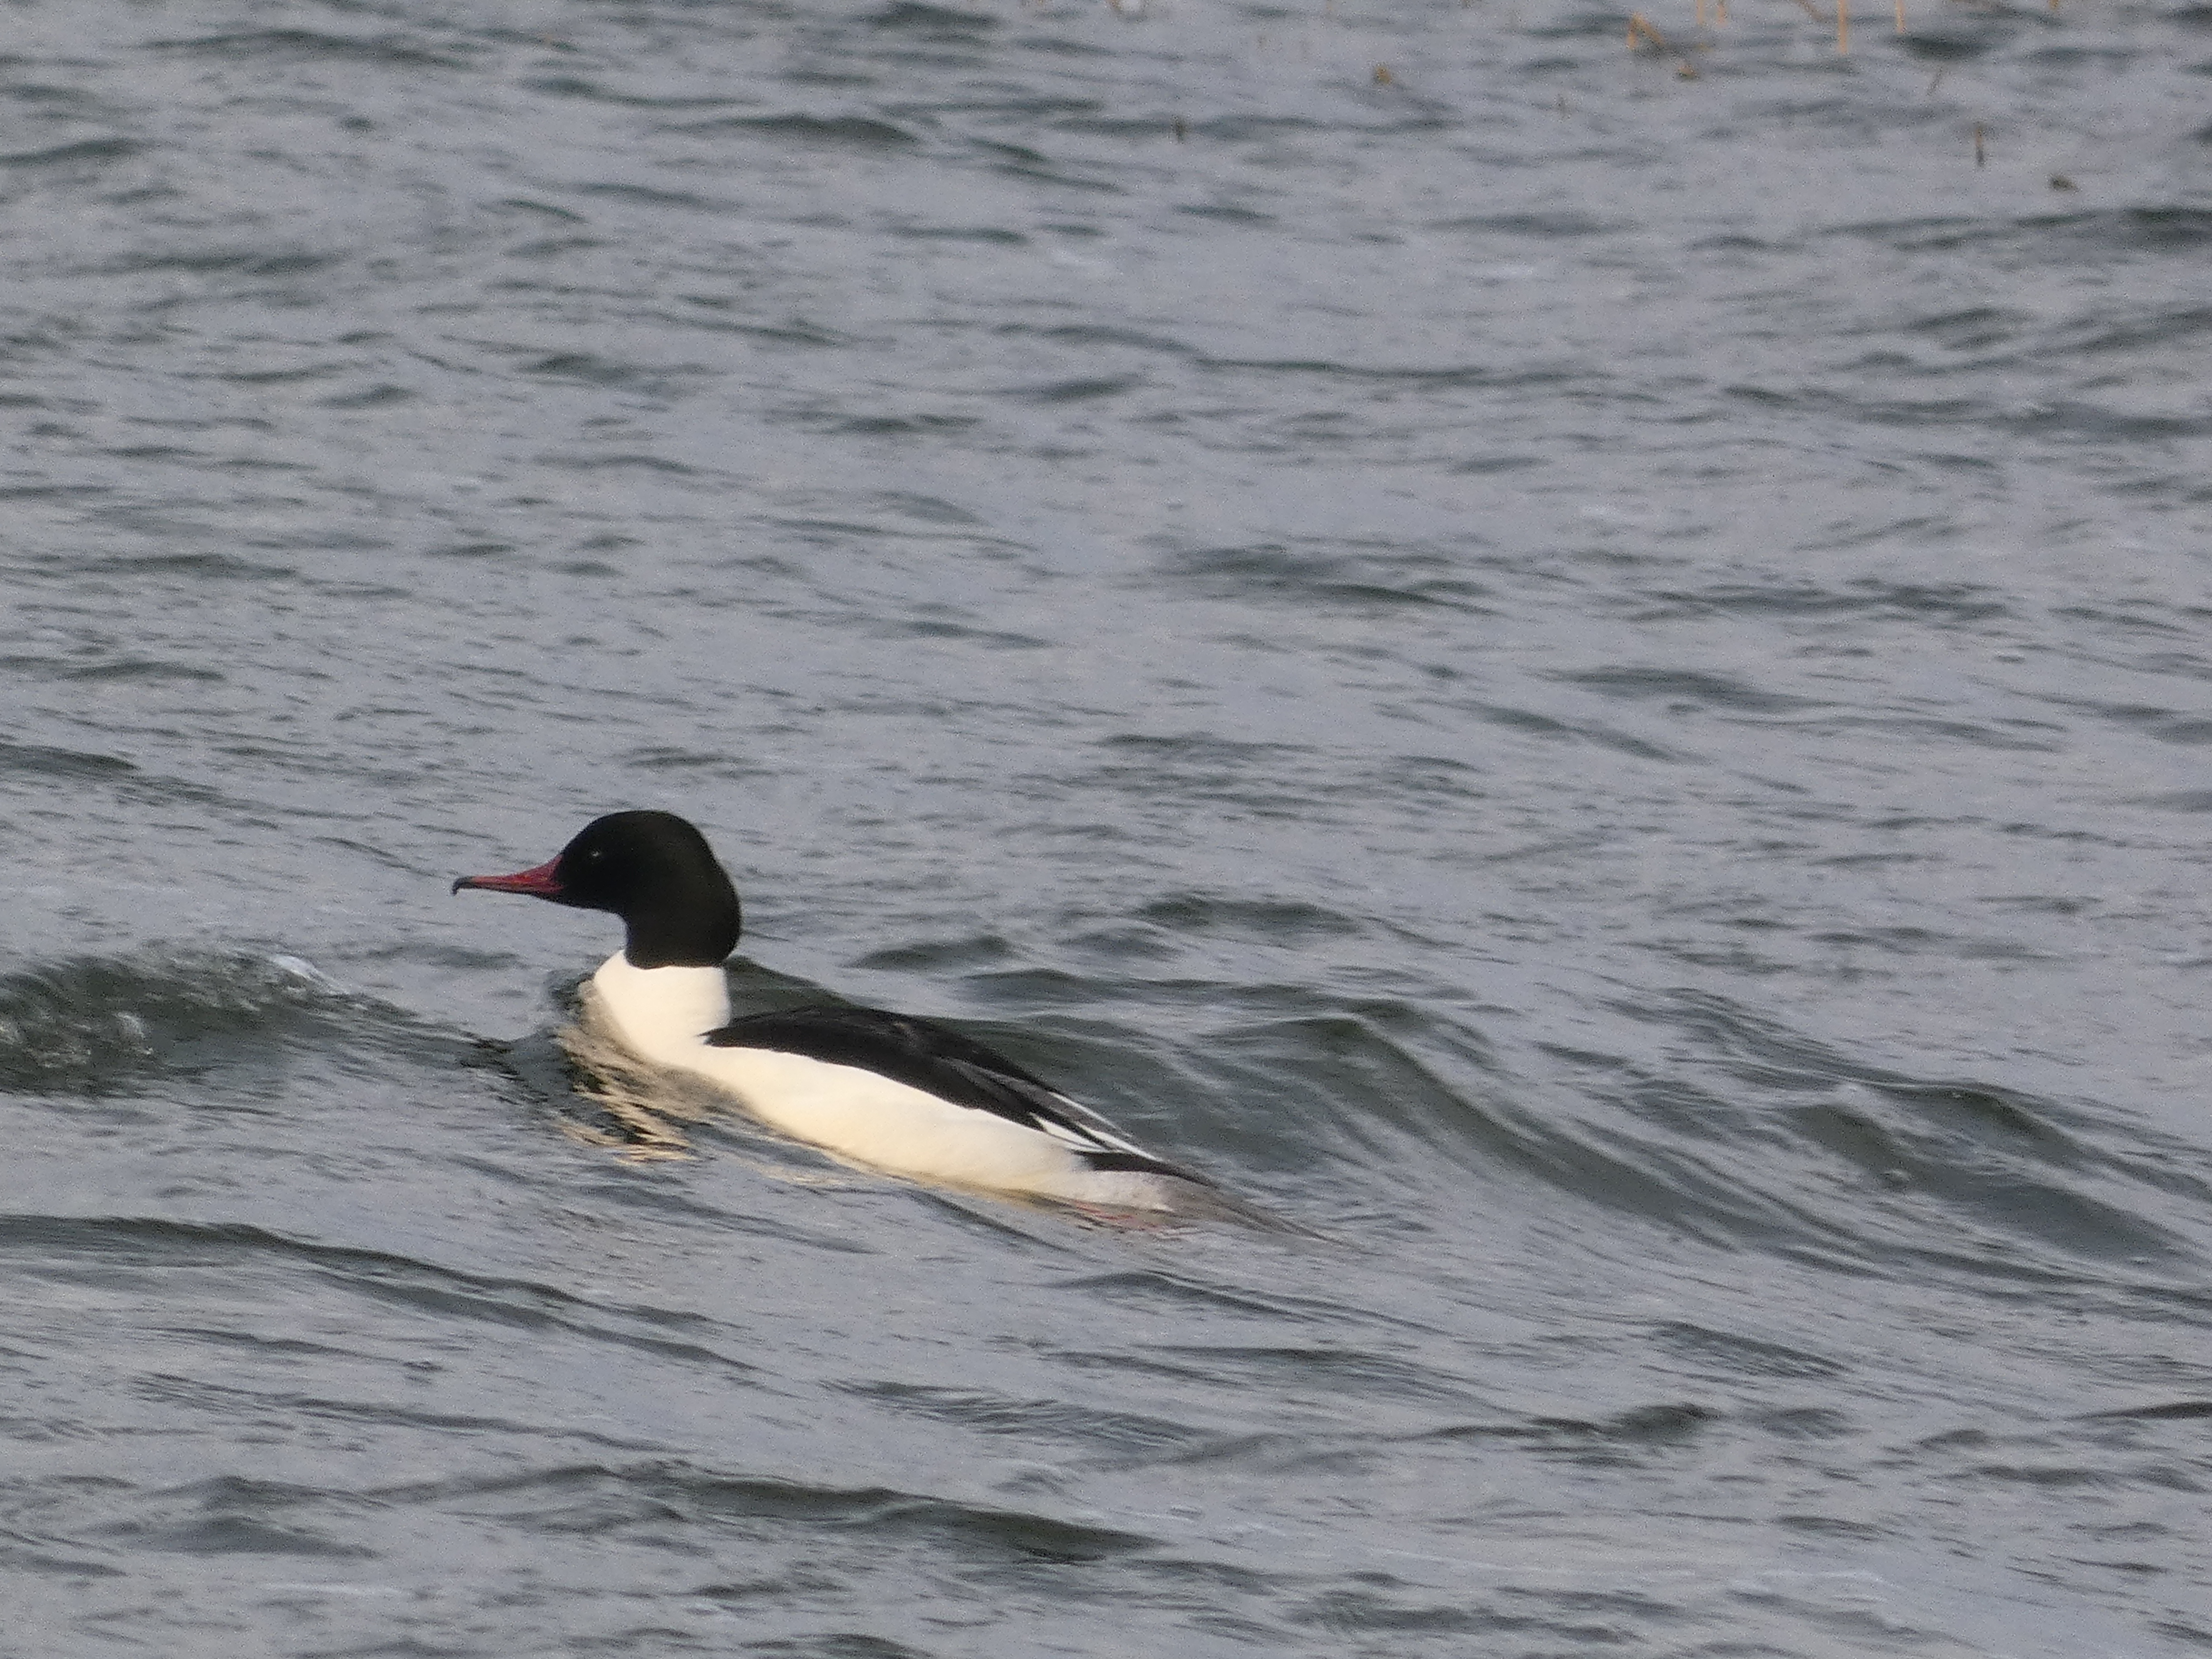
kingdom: Animalia
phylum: Chordata
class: Aves
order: Anseriformes
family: Anatidae
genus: Mergus
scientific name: Mergus merganser
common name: Stor skallesluger
